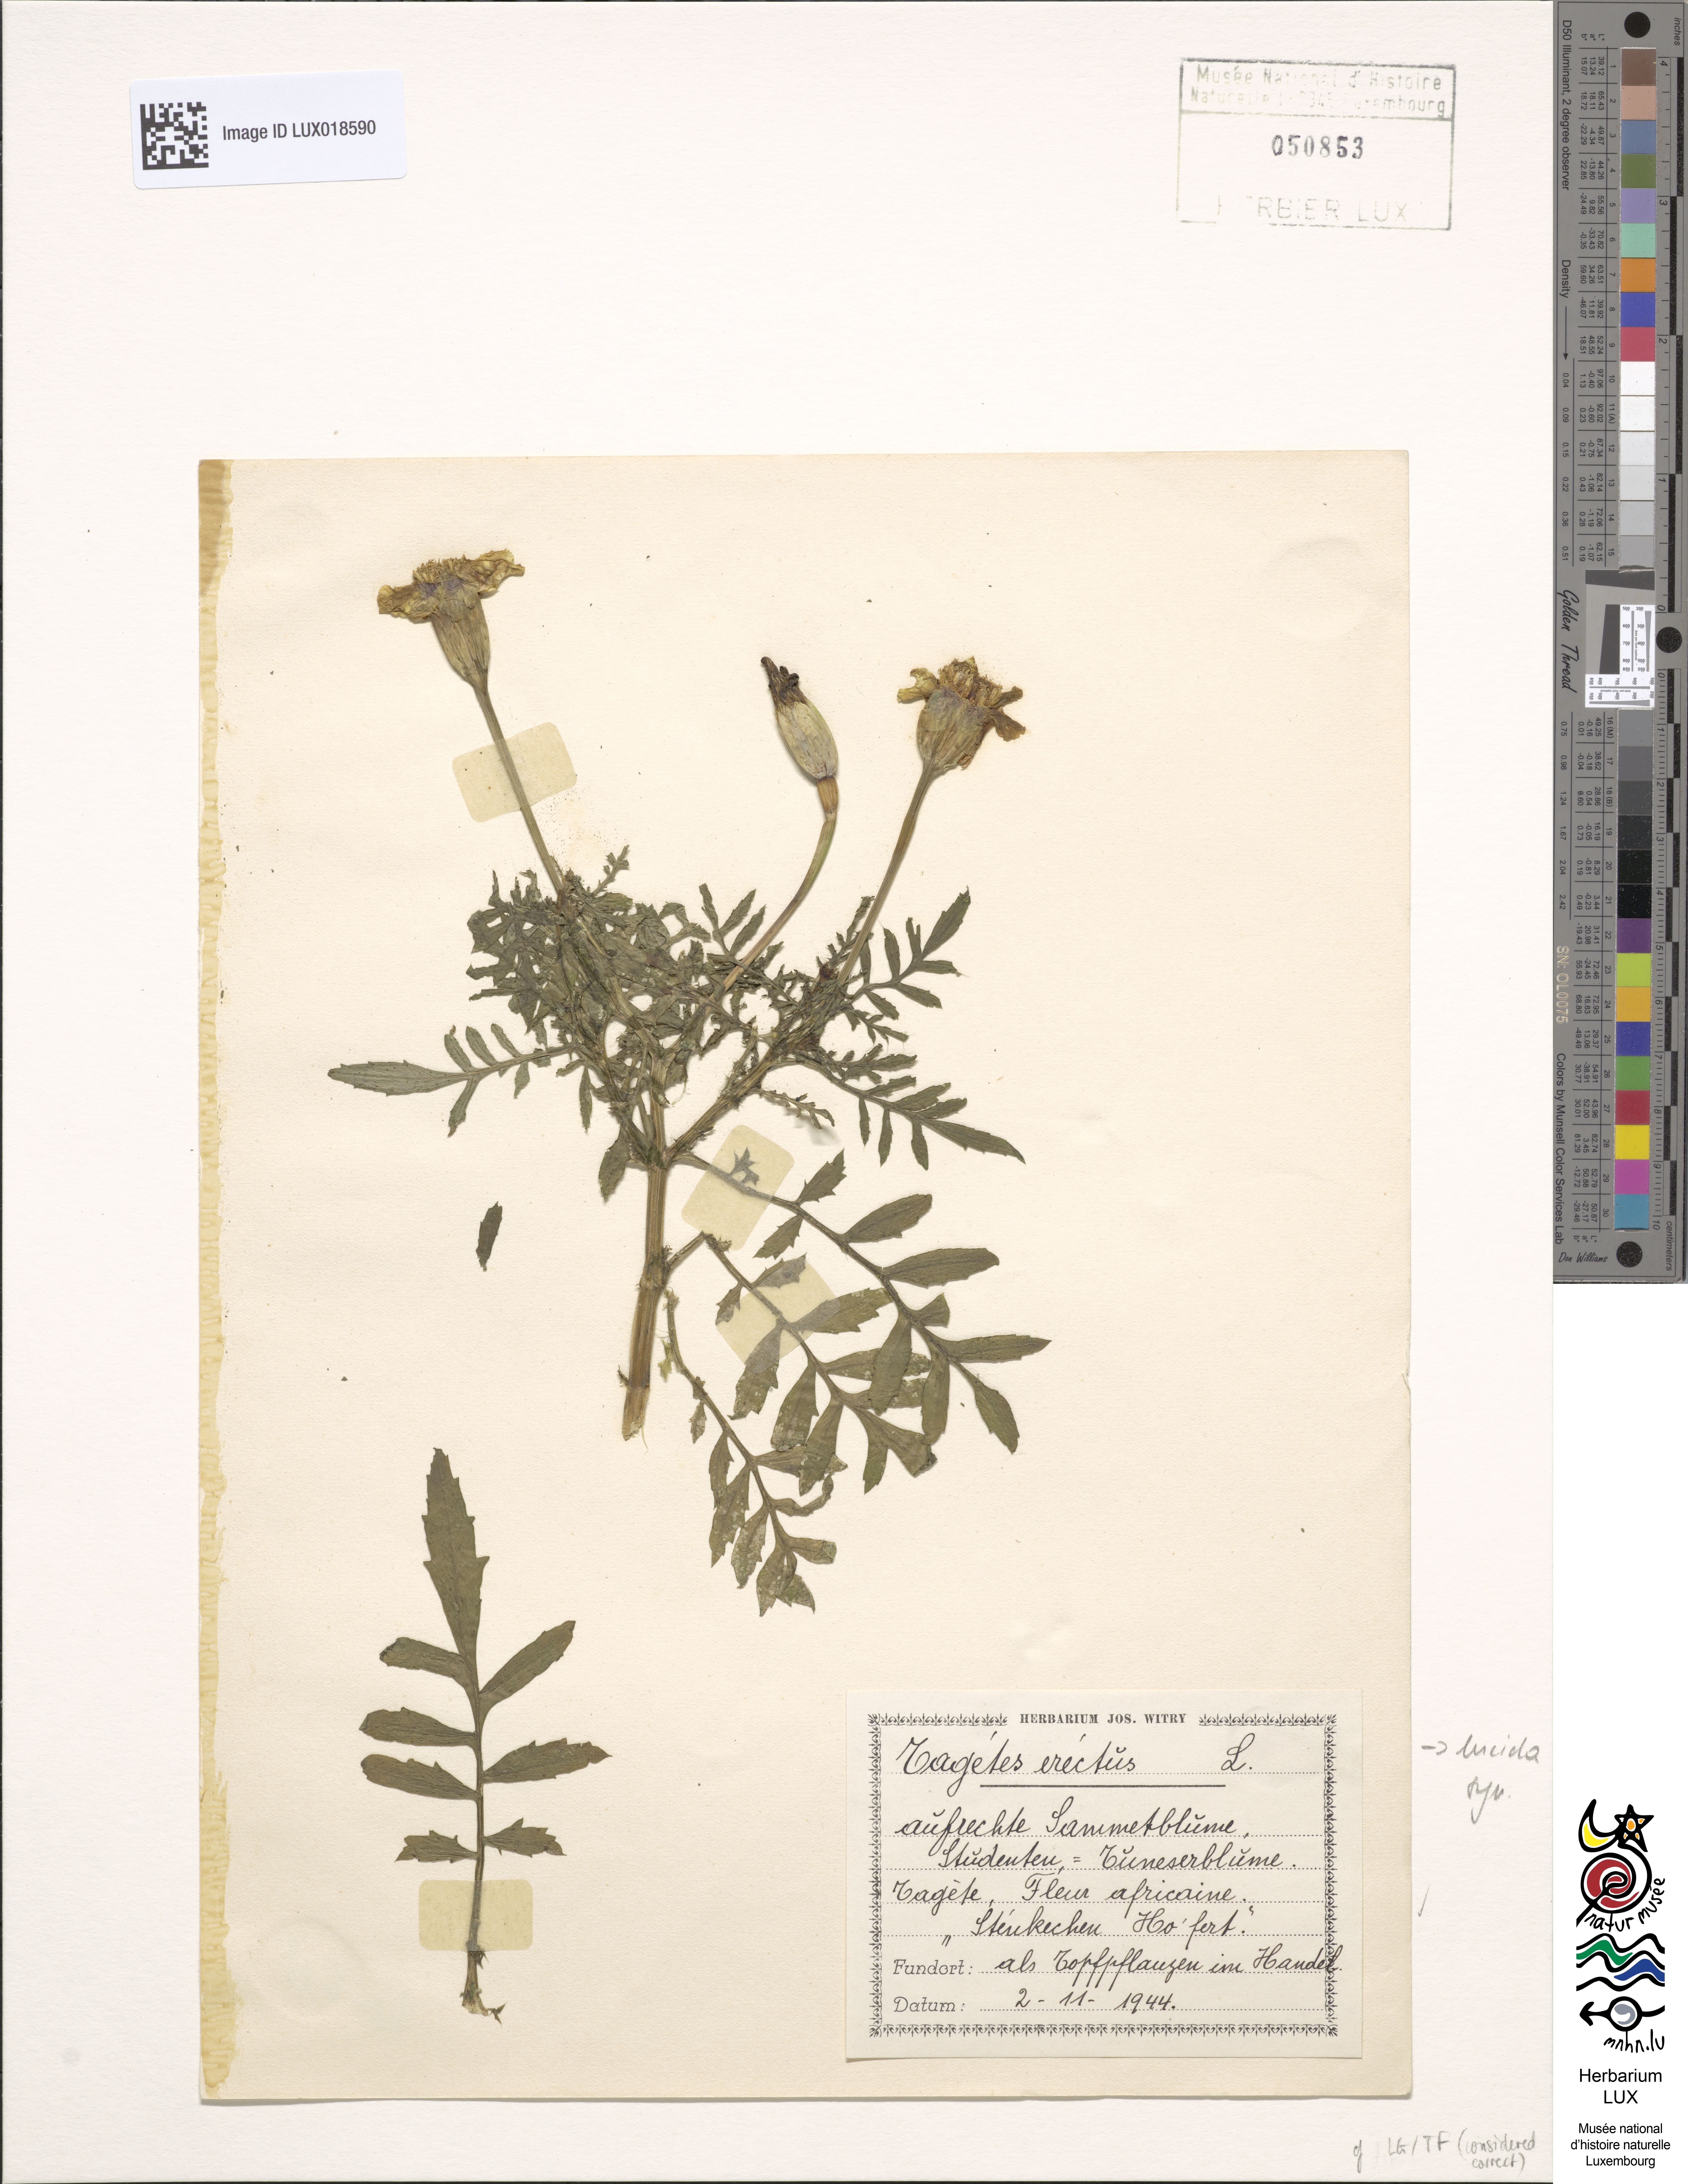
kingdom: Plantae
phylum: Tracheophyta
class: Magnoliopsida
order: Asterales
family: Asteraceae
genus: Tagetes
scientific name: Tagetes lucida
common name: Sweetscented marigold
